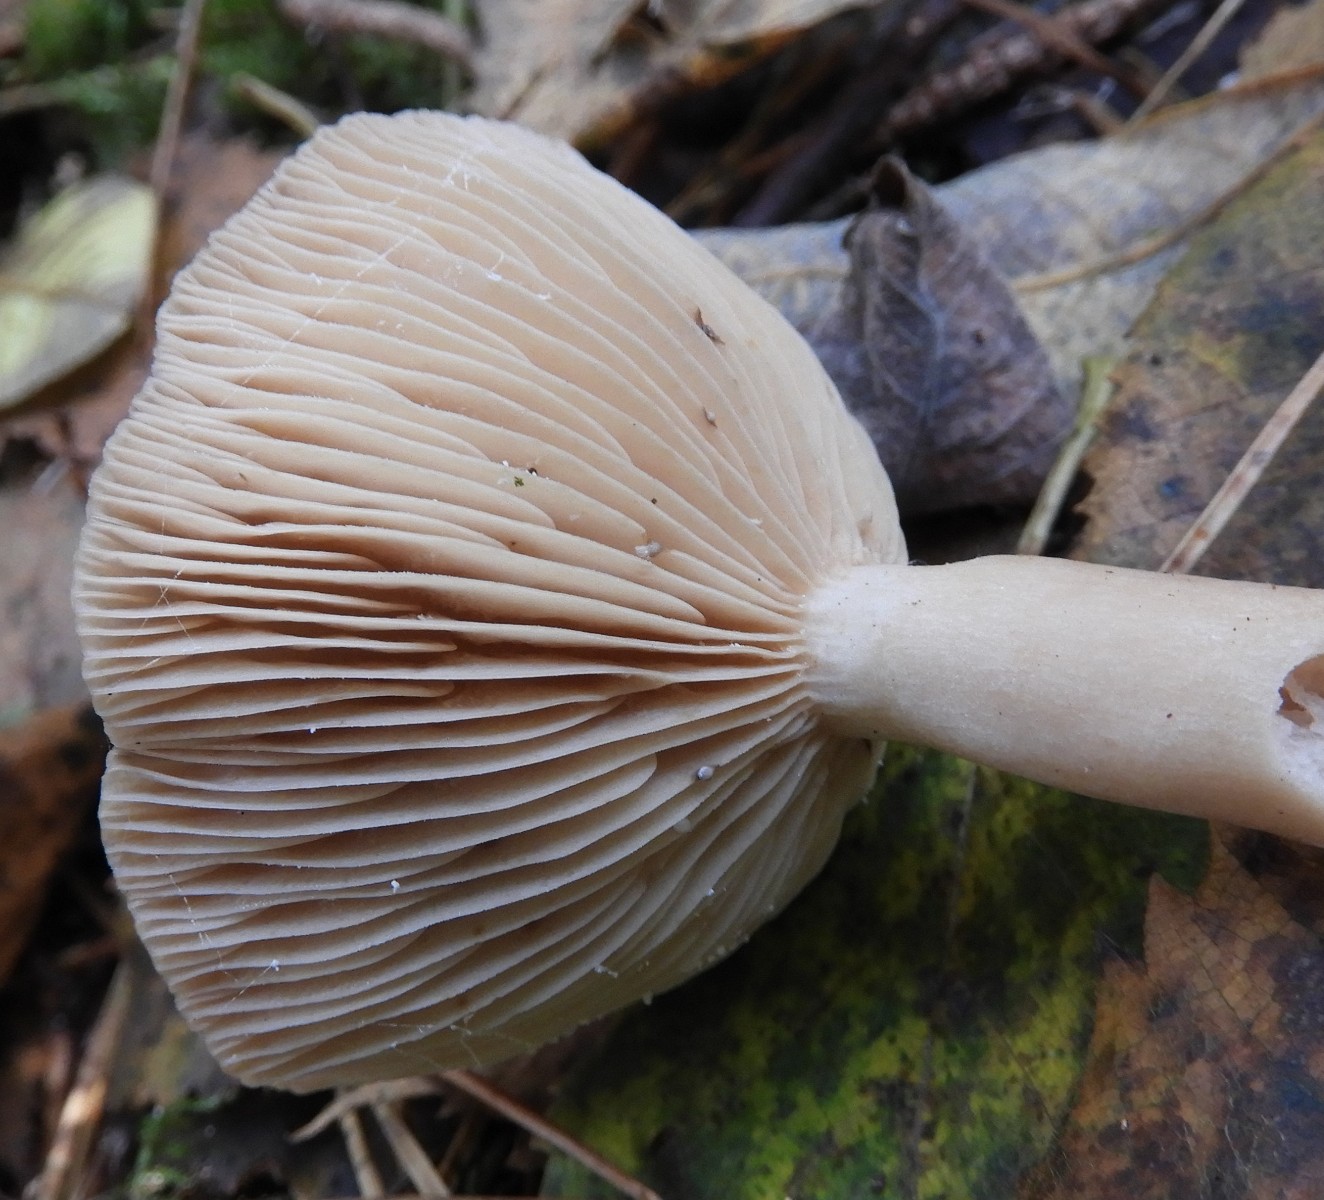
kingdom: Fungi
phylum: Basidiomycota
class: Agaricomycetes
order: Russulales
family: Russulaceae
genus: Lactarius
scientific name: Lactarius vietus
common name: violetgrå mælkehat
